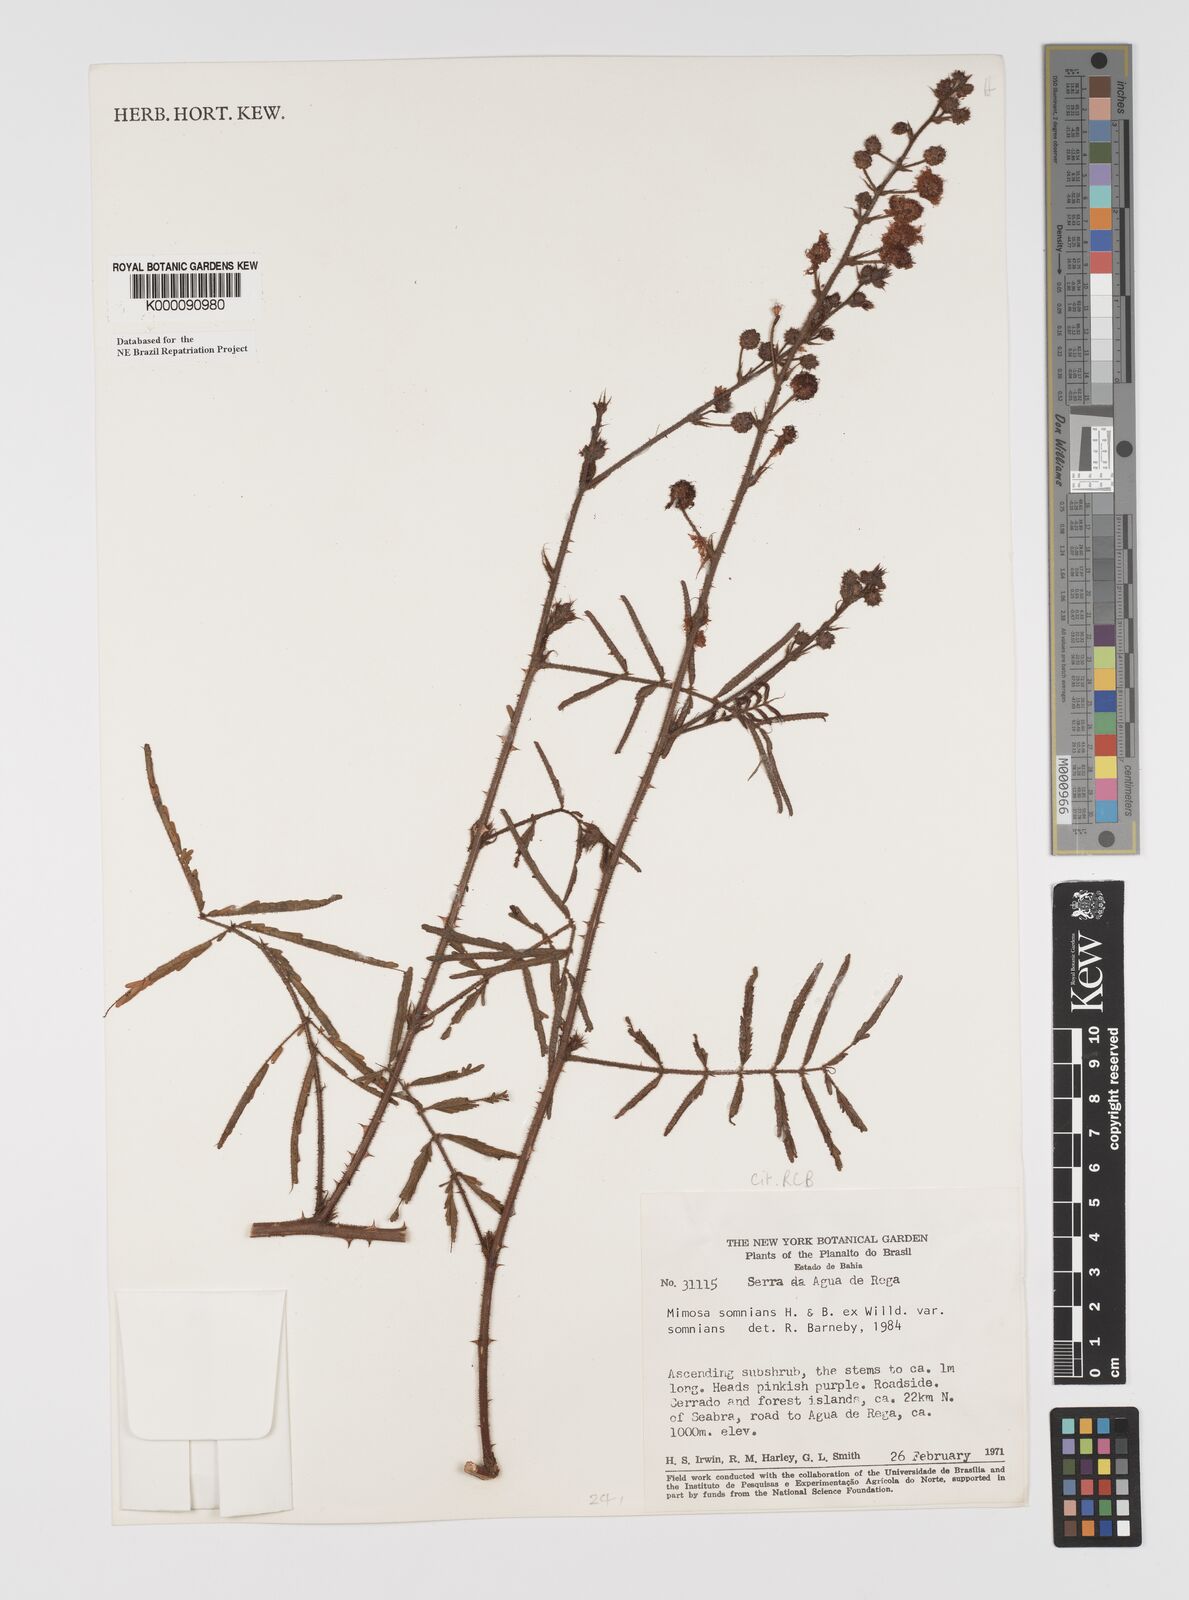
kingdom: Plantae
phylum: Tracheophyta
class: Magnoliopsida
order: Fabales
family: Fabaceae
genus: Mimosa
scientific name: Mimosa somnians
